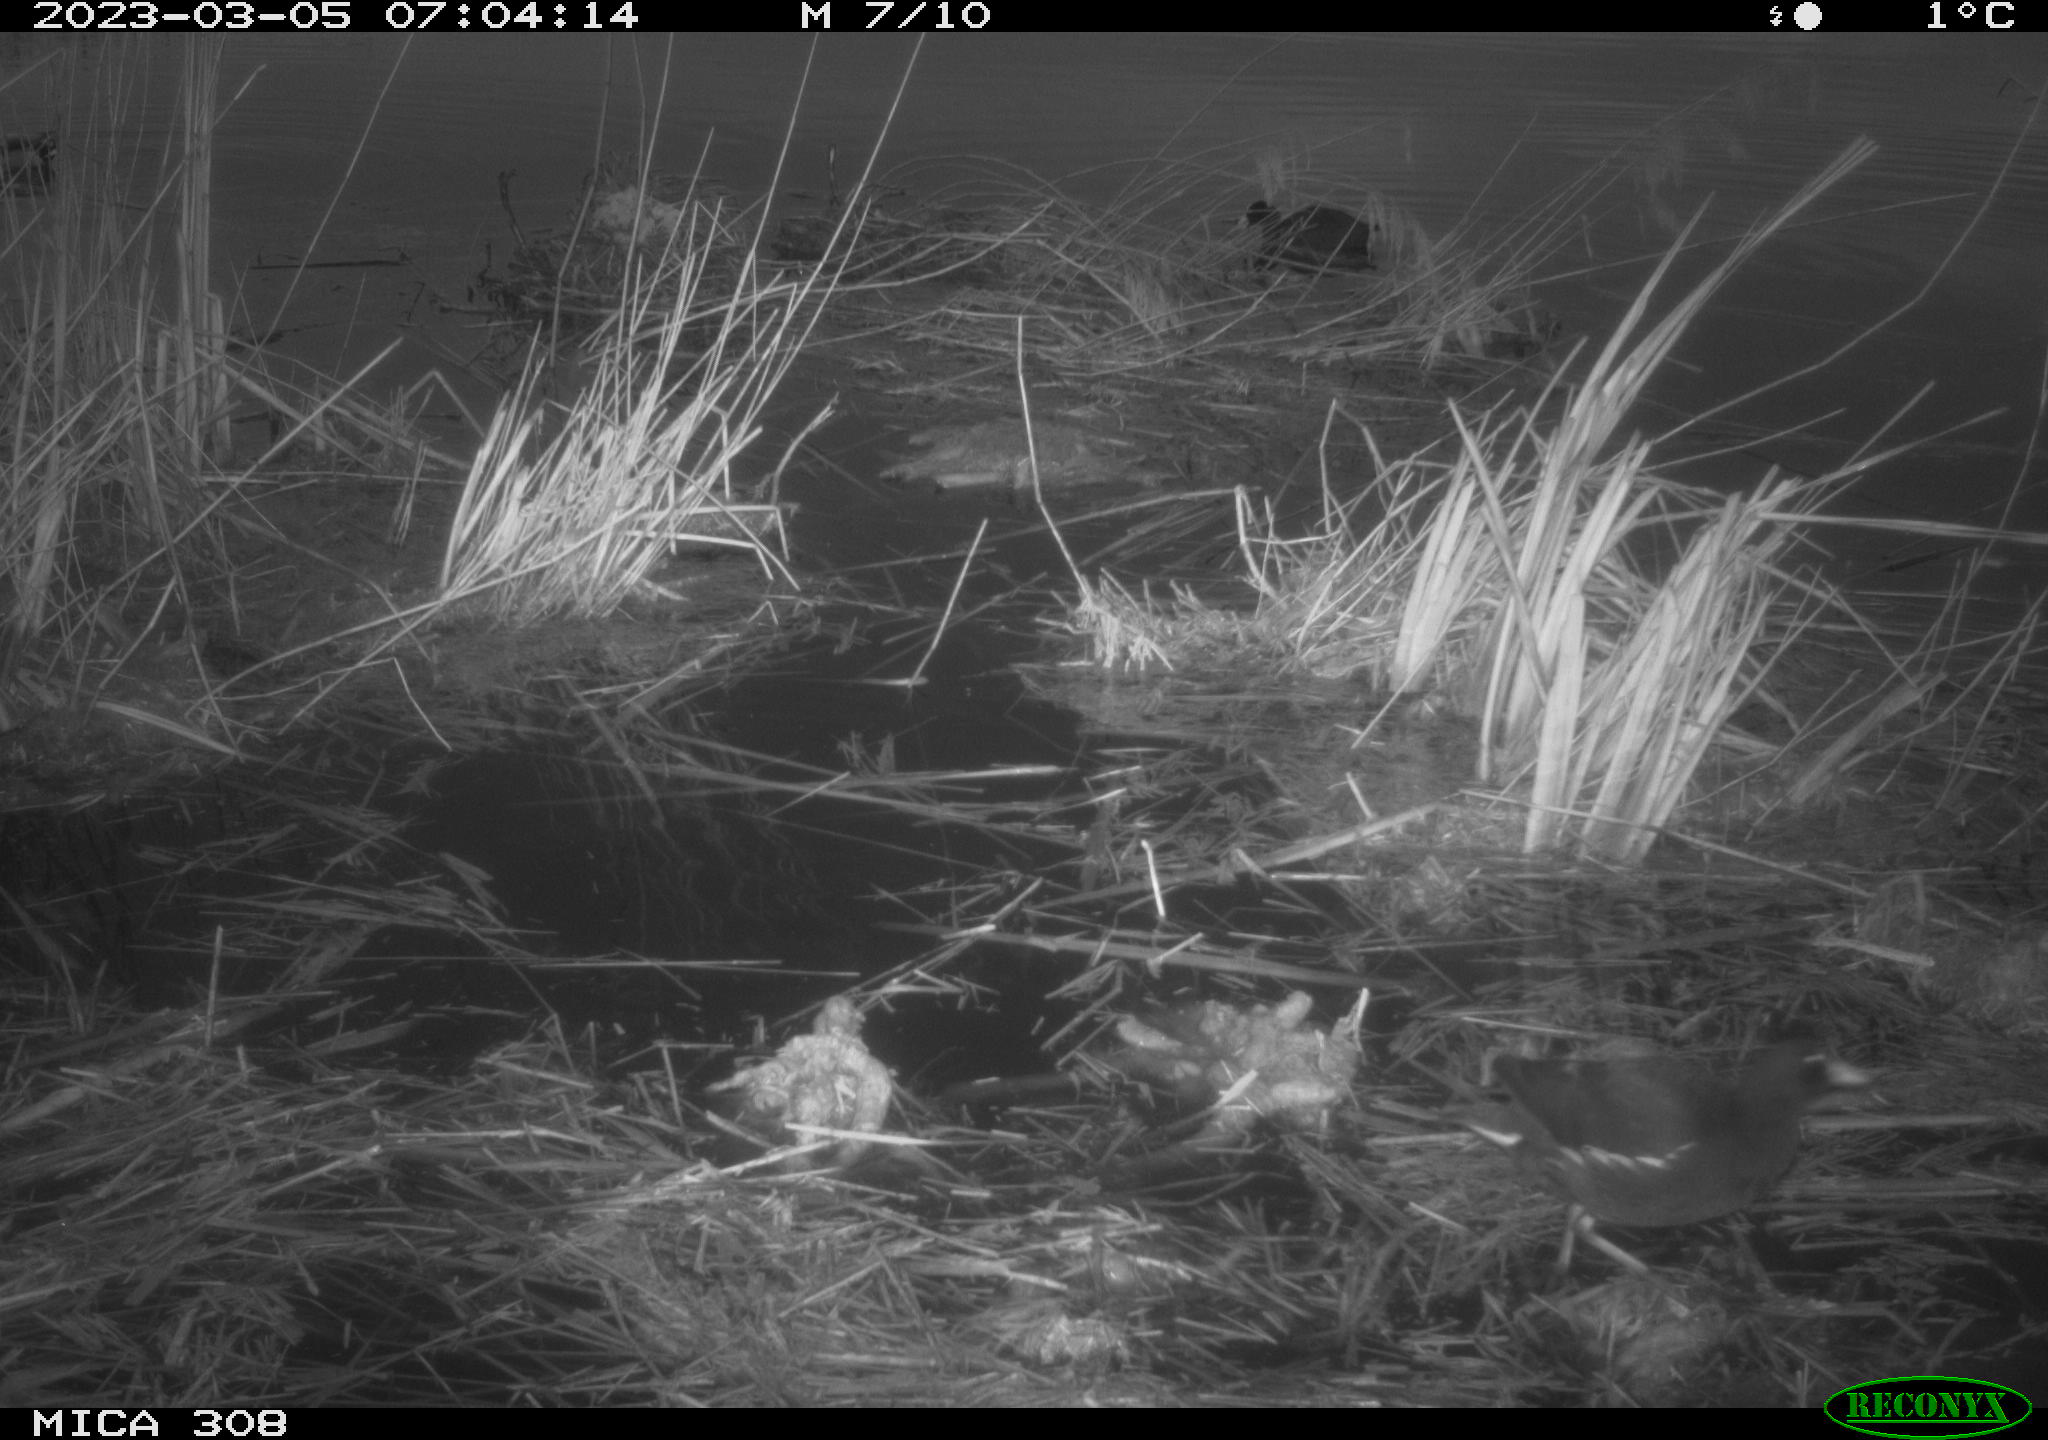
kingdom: Animalia
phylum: Chordata
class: Aves
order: Gruiformes
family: Rallidae
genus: Fulica
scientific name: Fulica atra
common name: Eurasian coot
